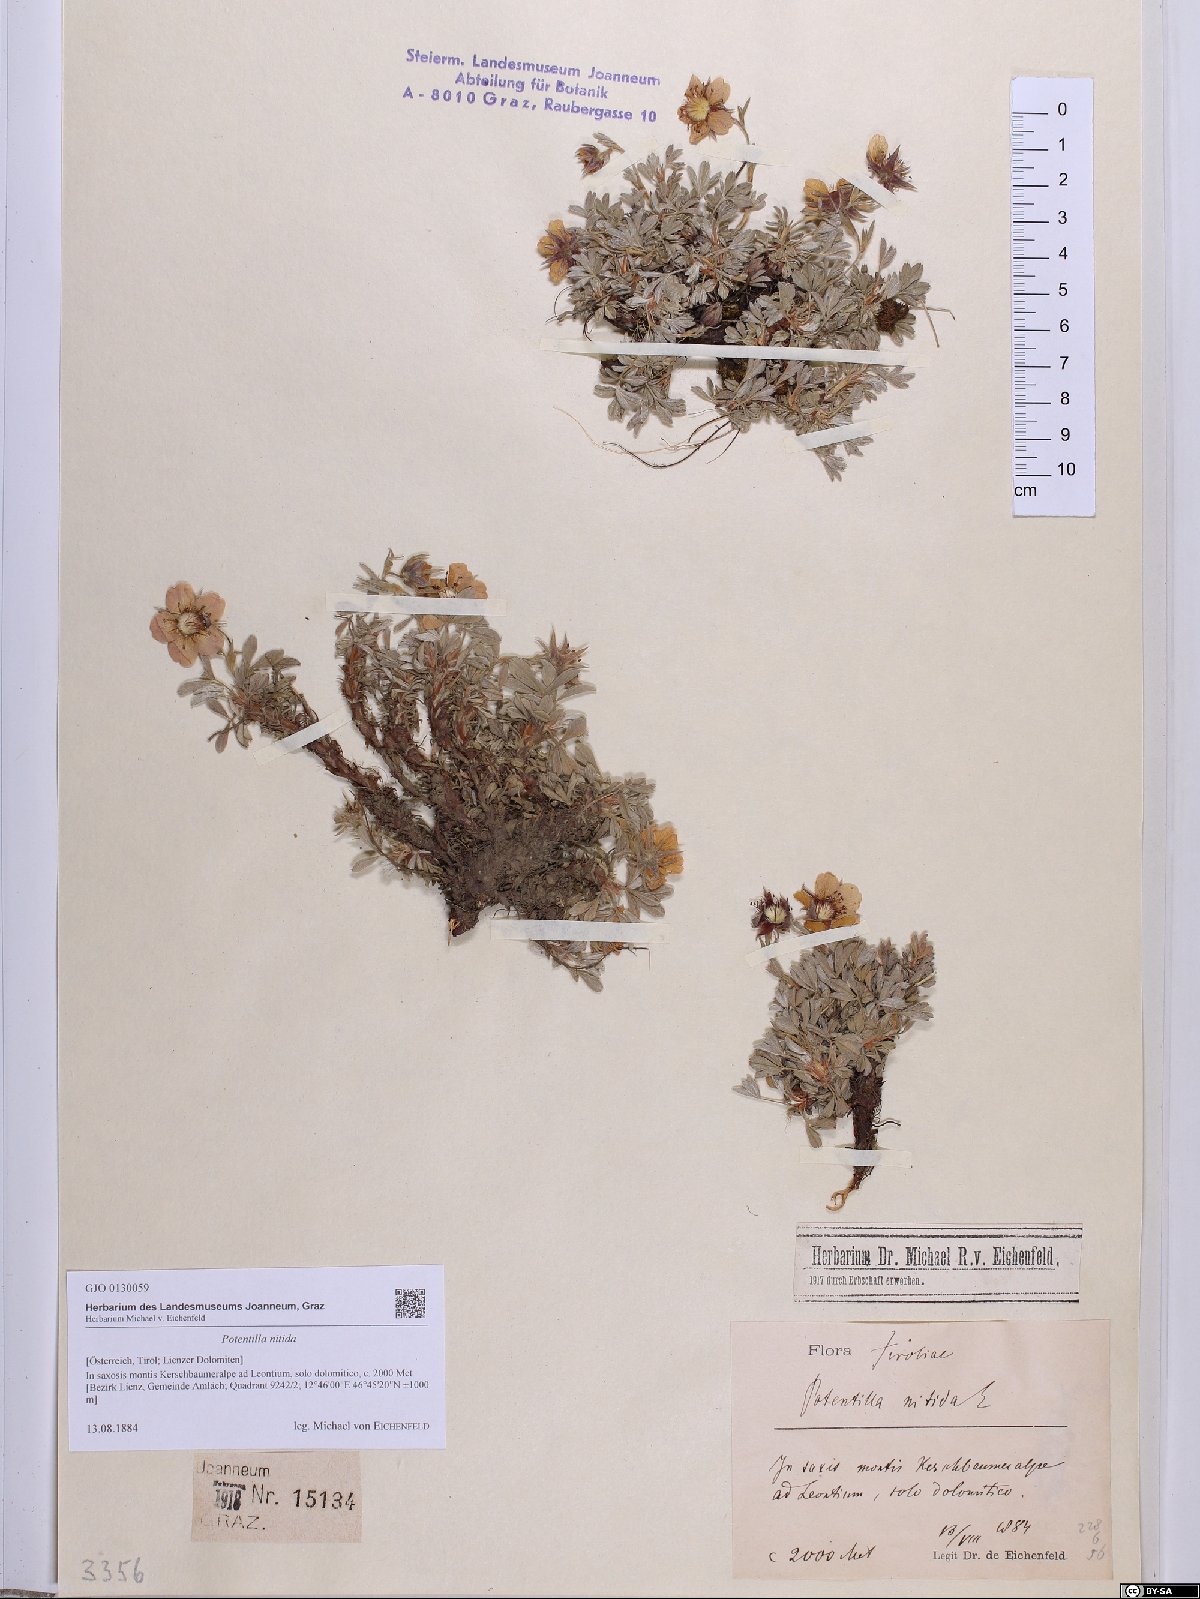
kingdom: Plantae
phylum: Tracheophyta
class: Magnoliopsida
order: Rosales
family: Rosaceae
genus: Potentilla
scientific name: Potentilla nitida
